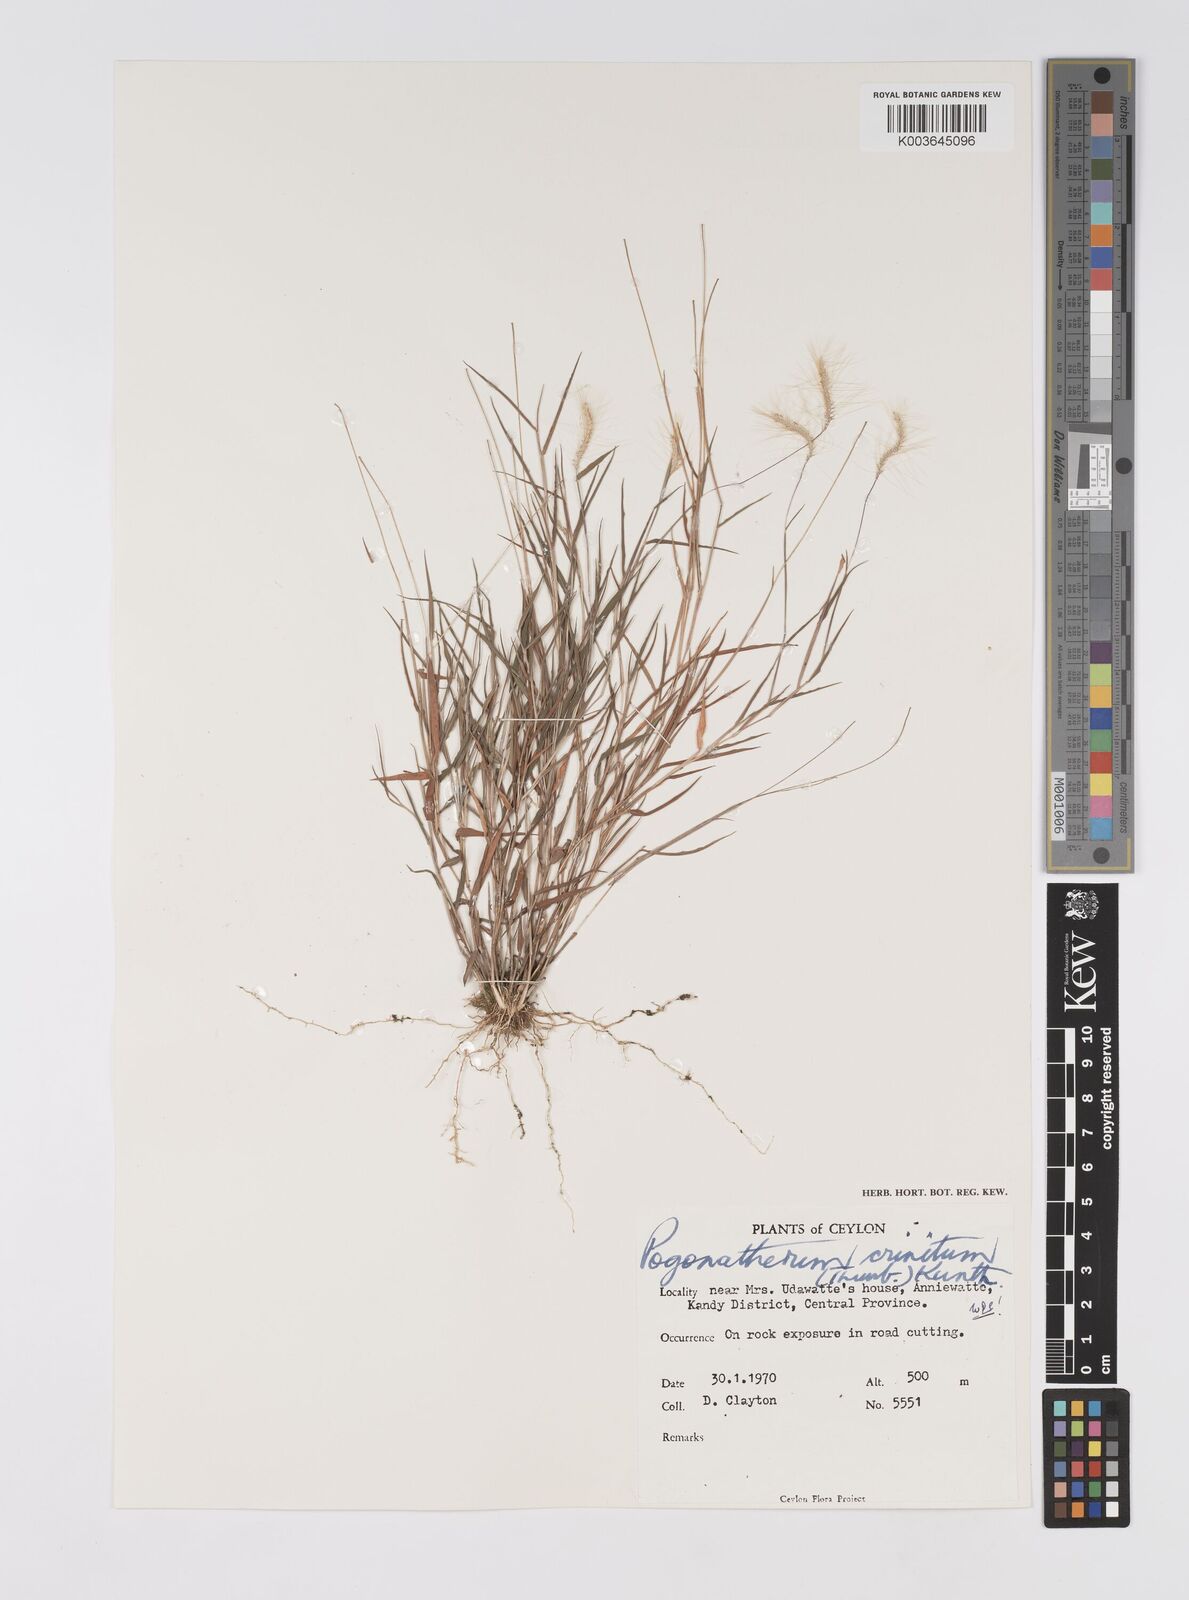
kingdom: Plantae
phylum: Tracheophyta
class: Liliopsida
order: Poales
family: Poaceae
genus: Pogonatherum
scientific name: Pogonatherum crinitum
